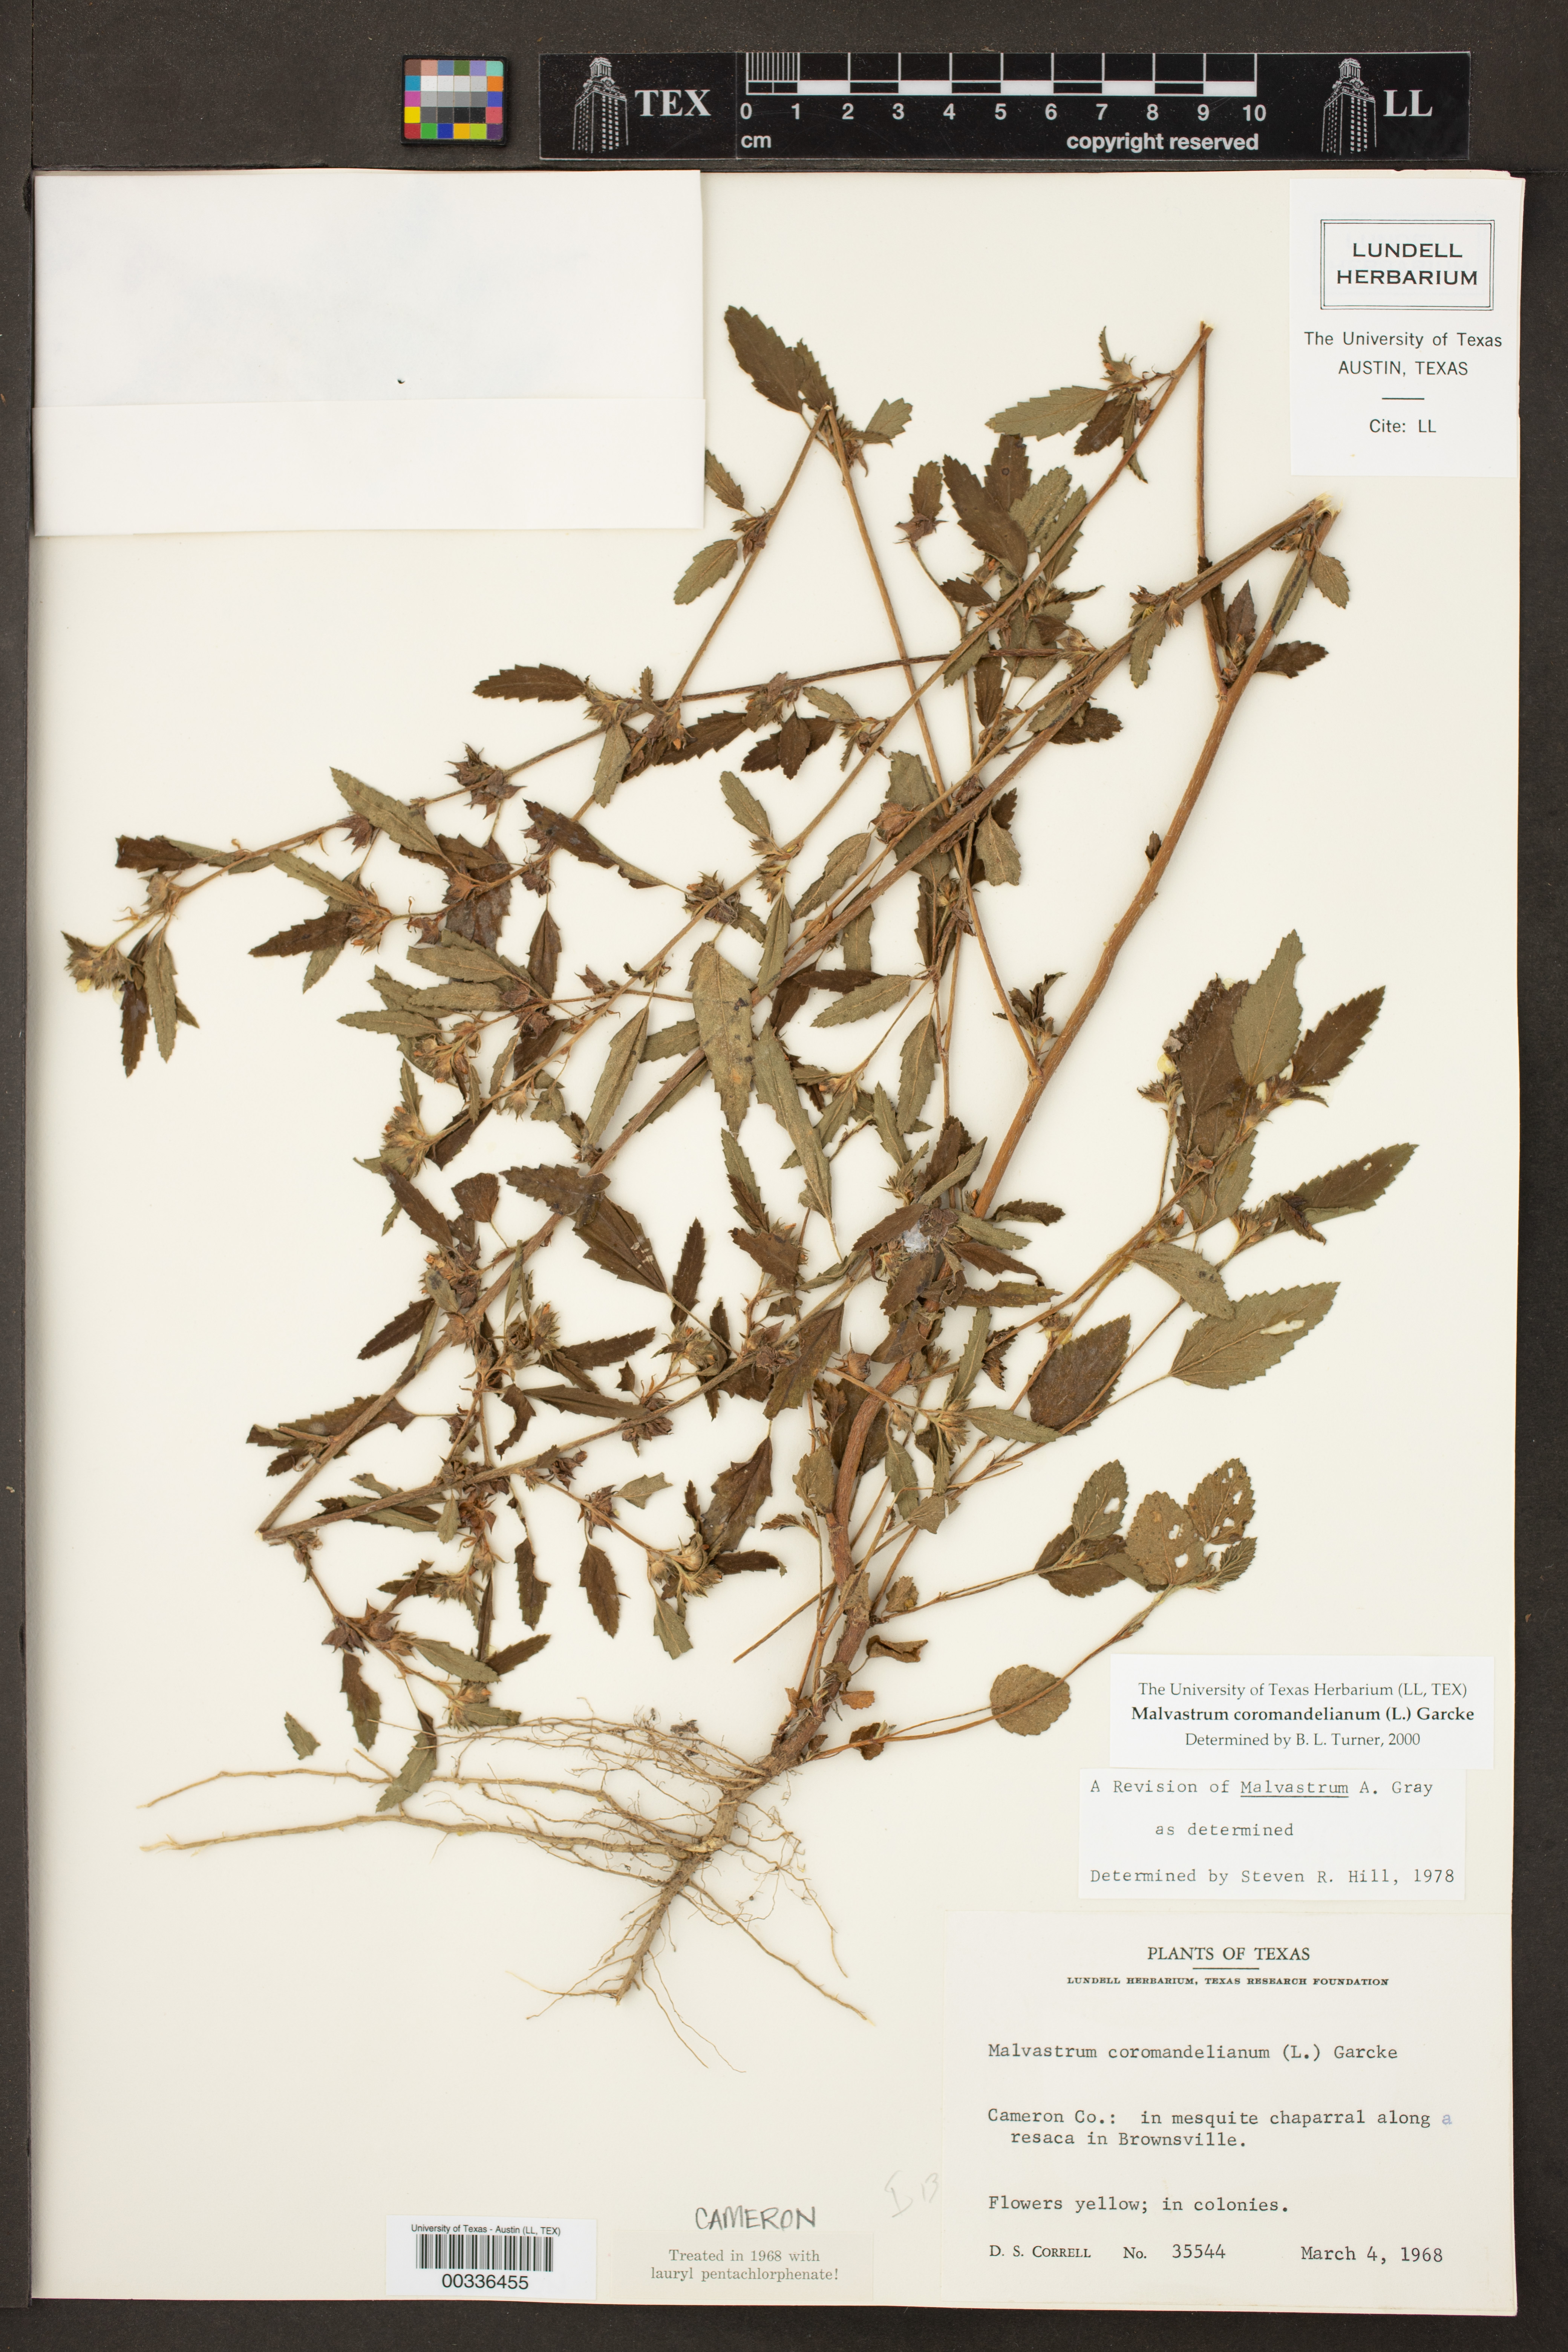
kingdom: Plantae
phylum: Tracheophyta
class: Magnoliopsida
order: Malvales
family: Malvaceae
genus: Malvastrum
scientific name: Malvastrum coromandelianum
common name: Threelobe false mallow
